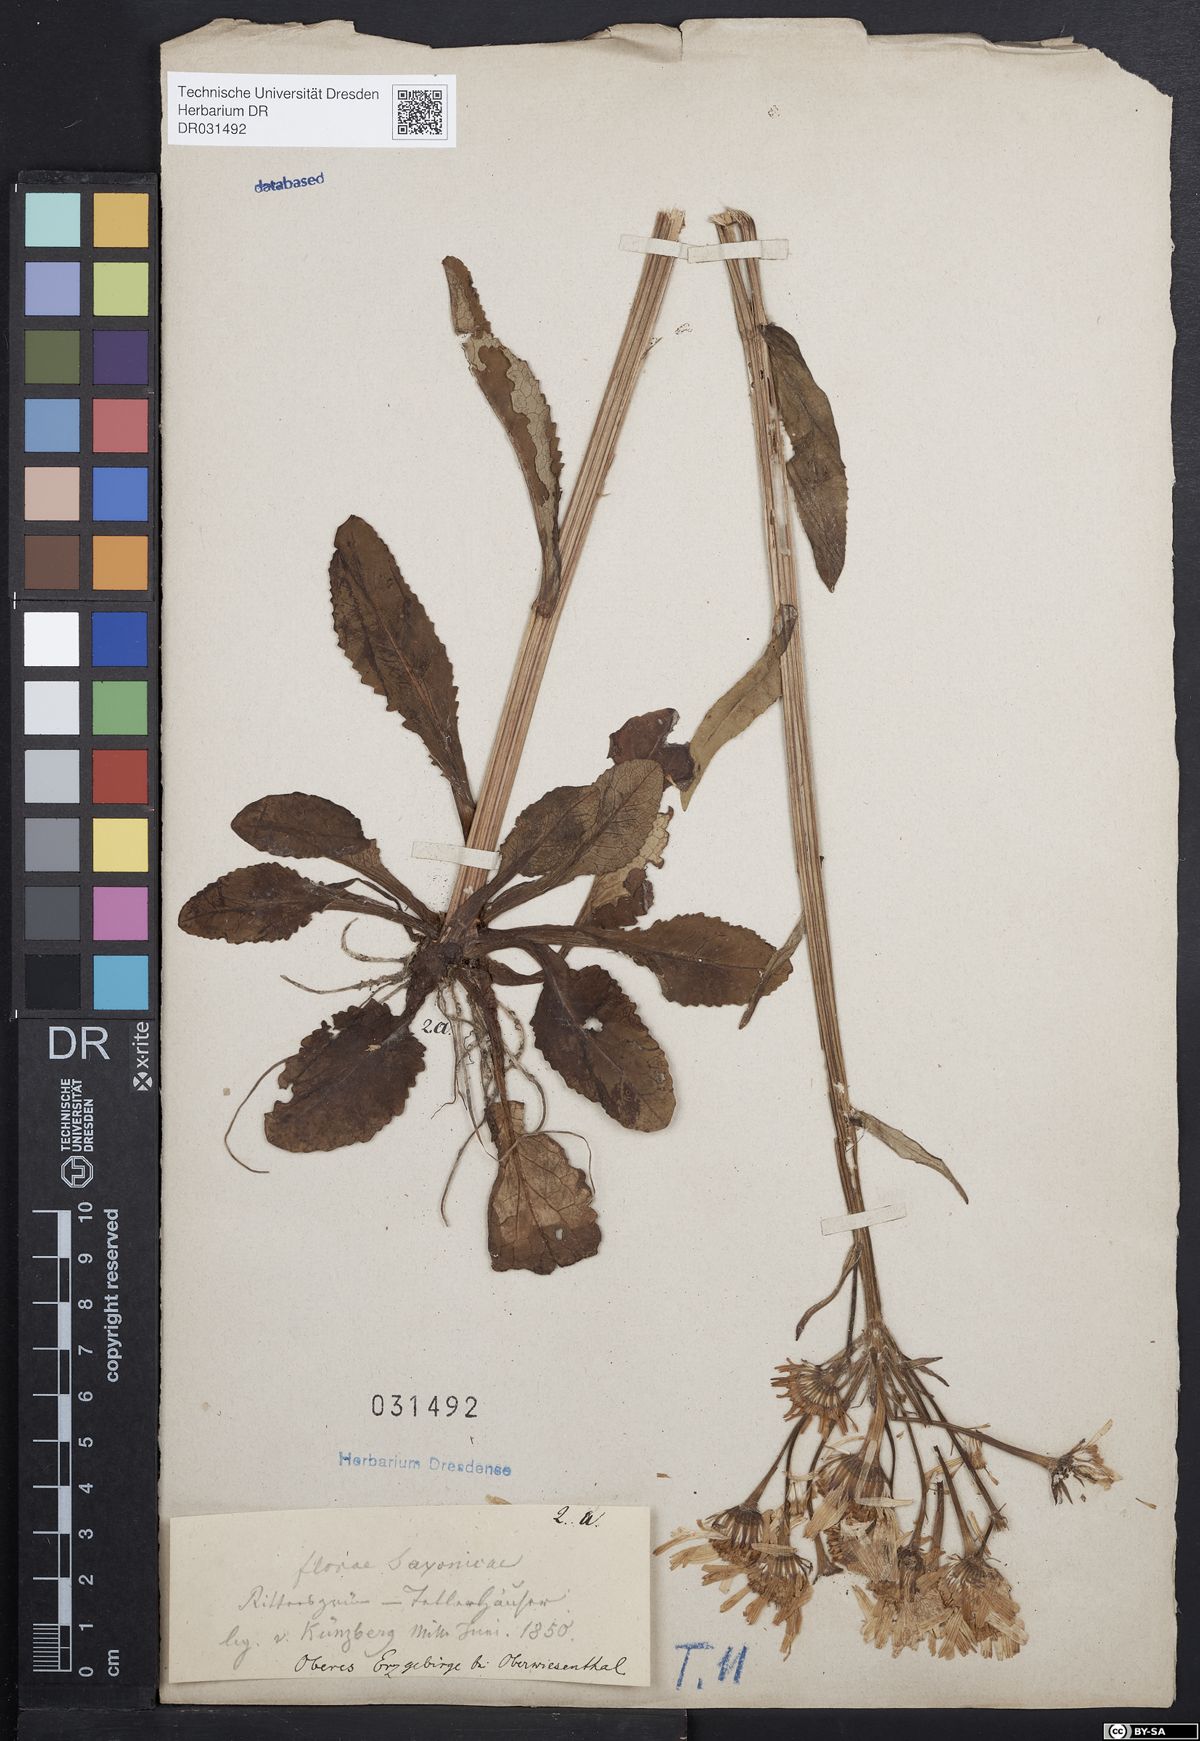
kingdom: Plantae
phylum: Tracheophyta
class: Magnoliopsida
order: Asterales
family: Asteraceae
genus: Tephroseris
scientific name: Tephroseris crispa
